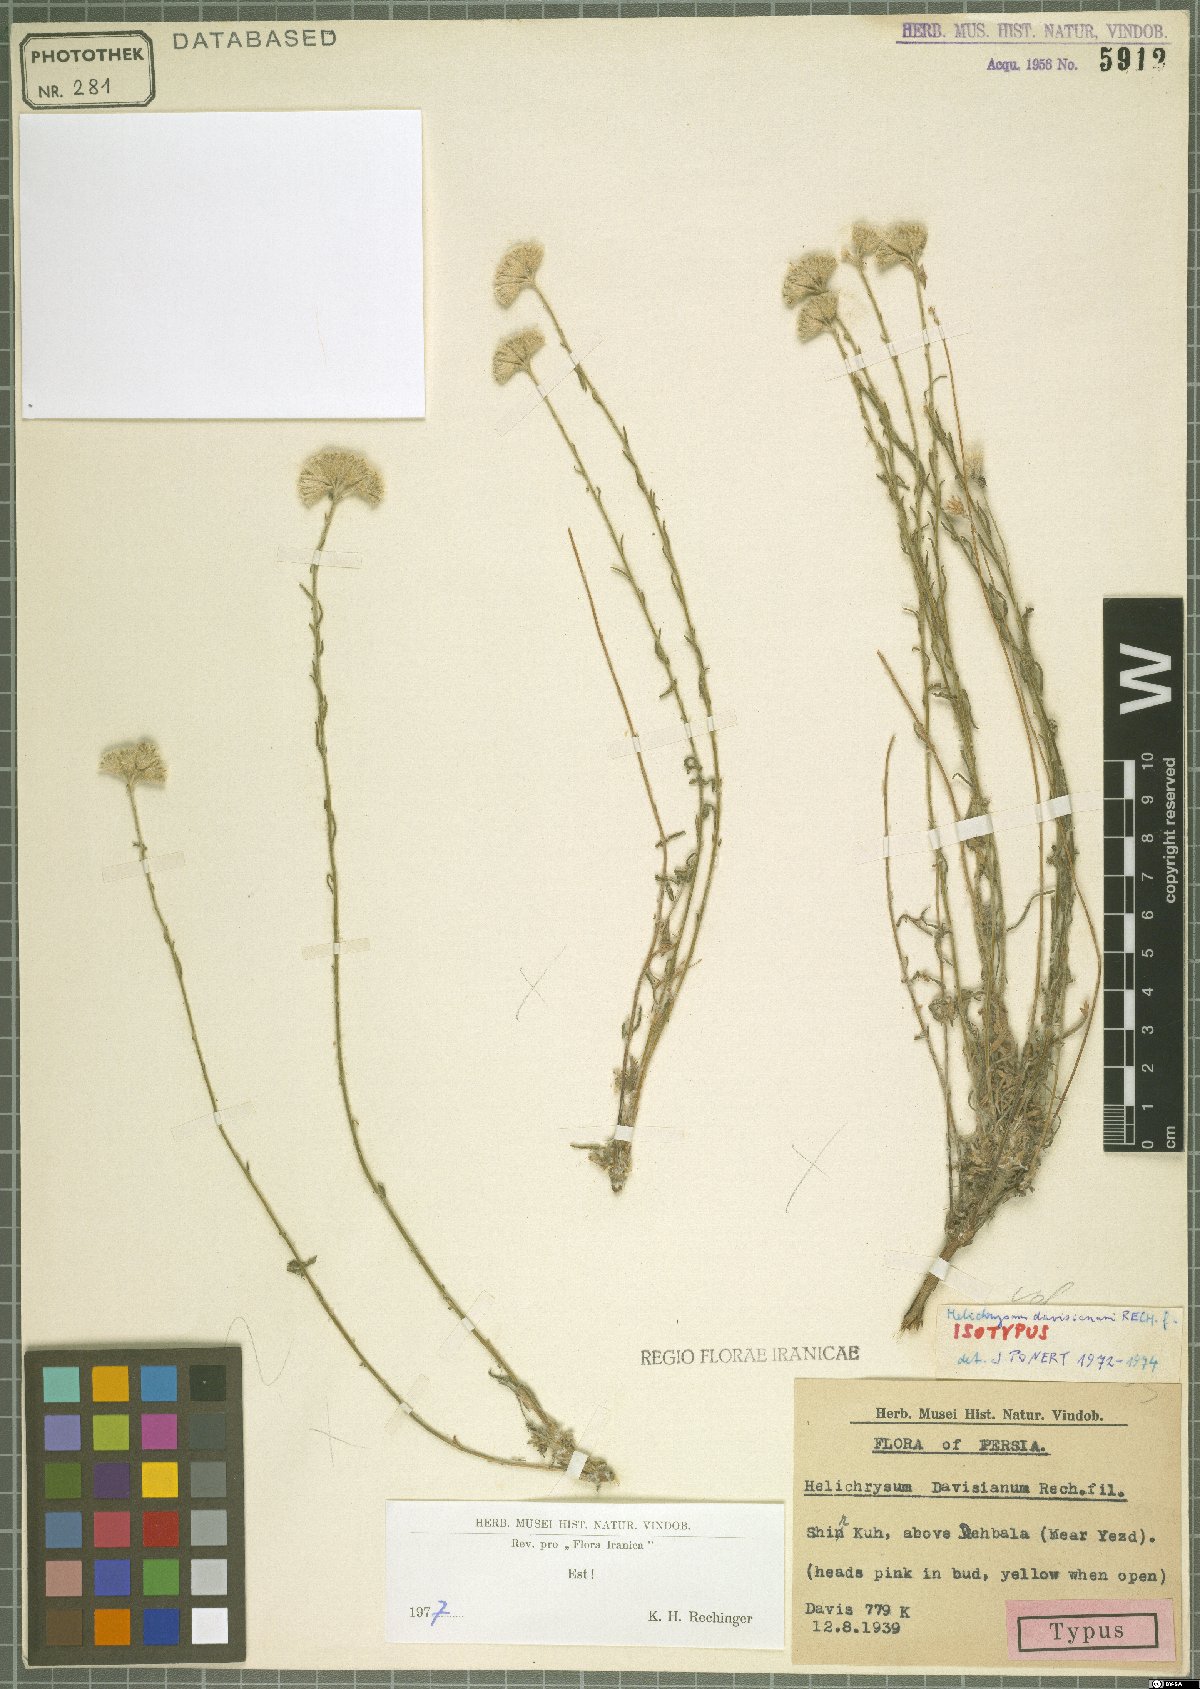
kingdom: Plantae
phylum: Tracheophyta
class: Magnoliopsida
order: Asterales
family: Asteraceae
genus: Helichrysum
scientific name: Helichrysum artemisioides
